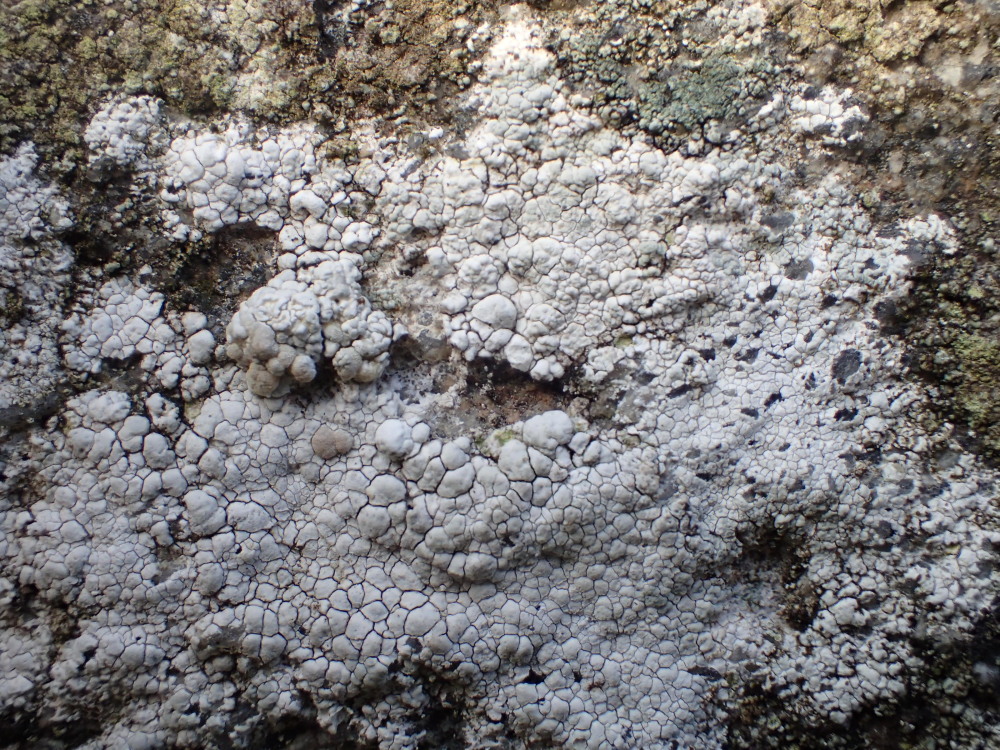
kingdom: Fungi
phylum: Ascomycota
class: Lecanoromycetes
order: Lecanorales
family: Lecanoraceae
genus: Glaucomaria
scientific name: Glaucomaria rupicola
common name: stengærde-kantskivelav
